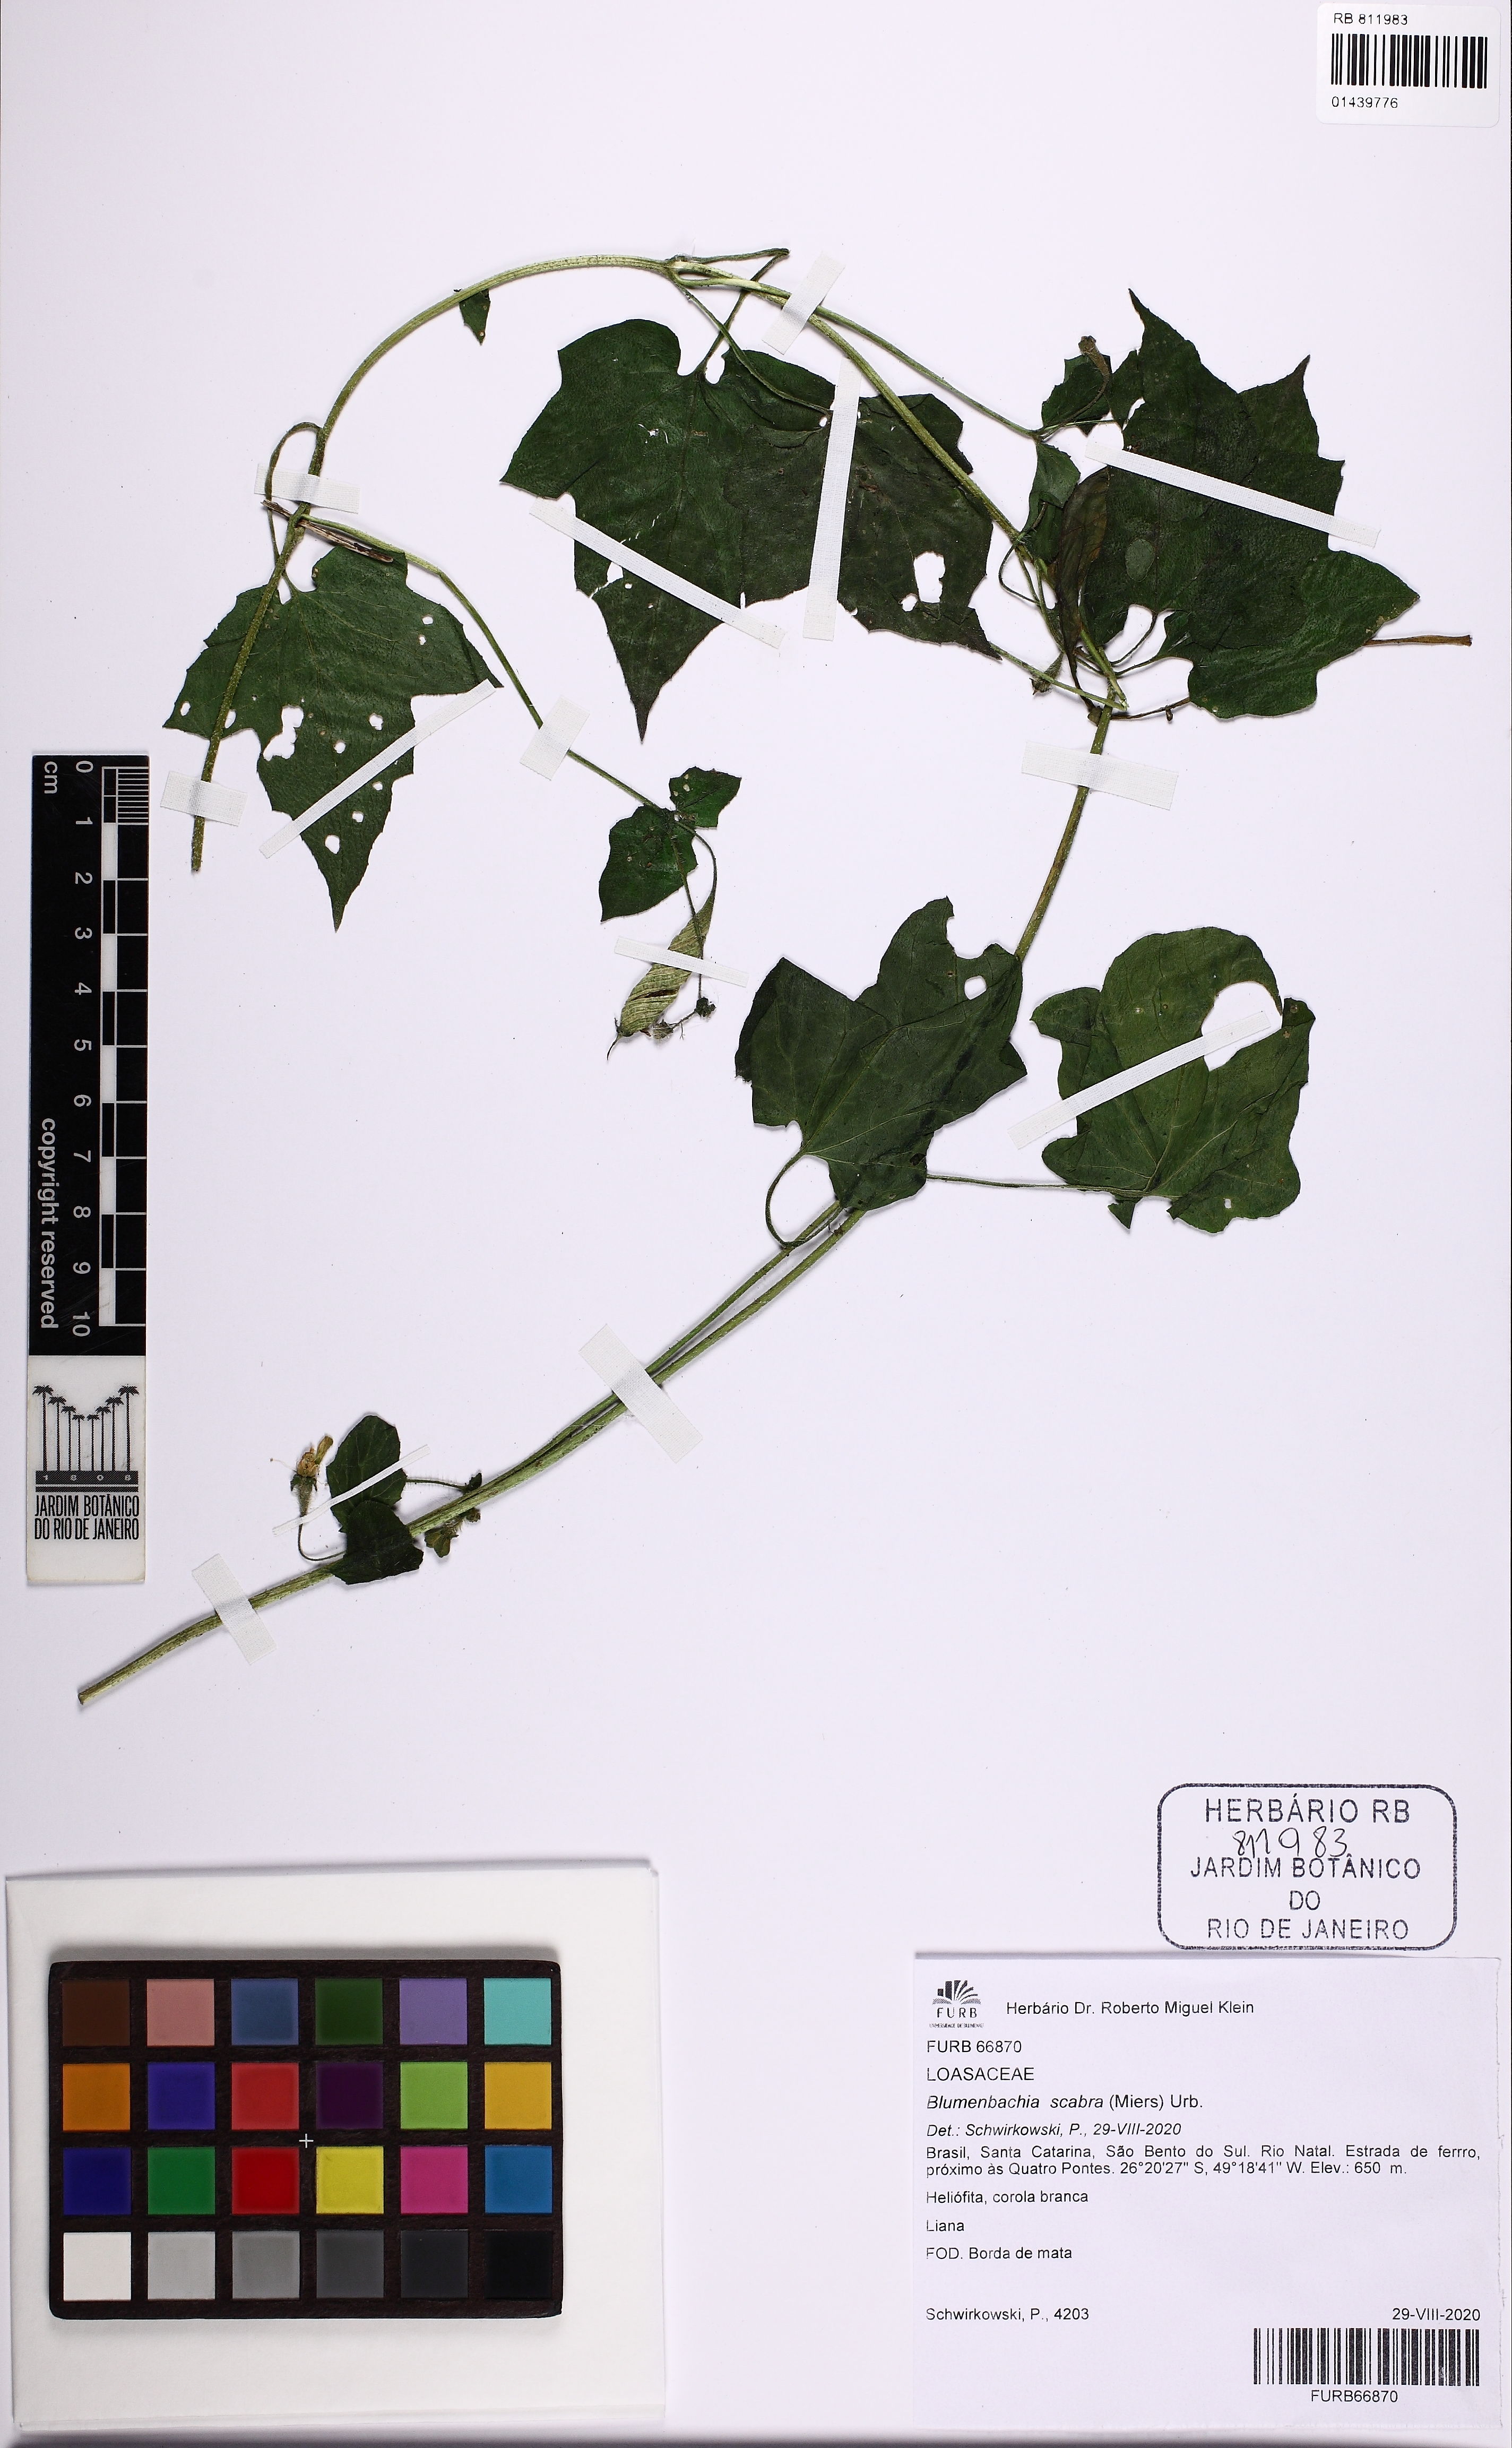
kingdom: Plantae
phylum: Tracheophyta
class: Magnoliopsida
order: Cornales
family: Loasaceae
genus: Blumenbachia
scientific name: Blumenbachia scabra
